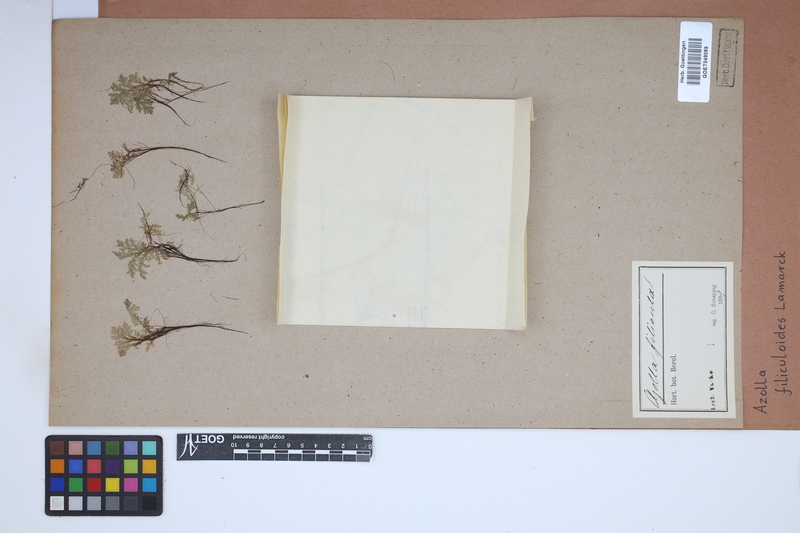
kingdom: Plantae
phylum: Tracheophyta
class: Polypodiopsida
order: Salviniales
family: Salviniaceae
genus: Azolla
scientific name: Azolla filiculoides
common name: Water fern
